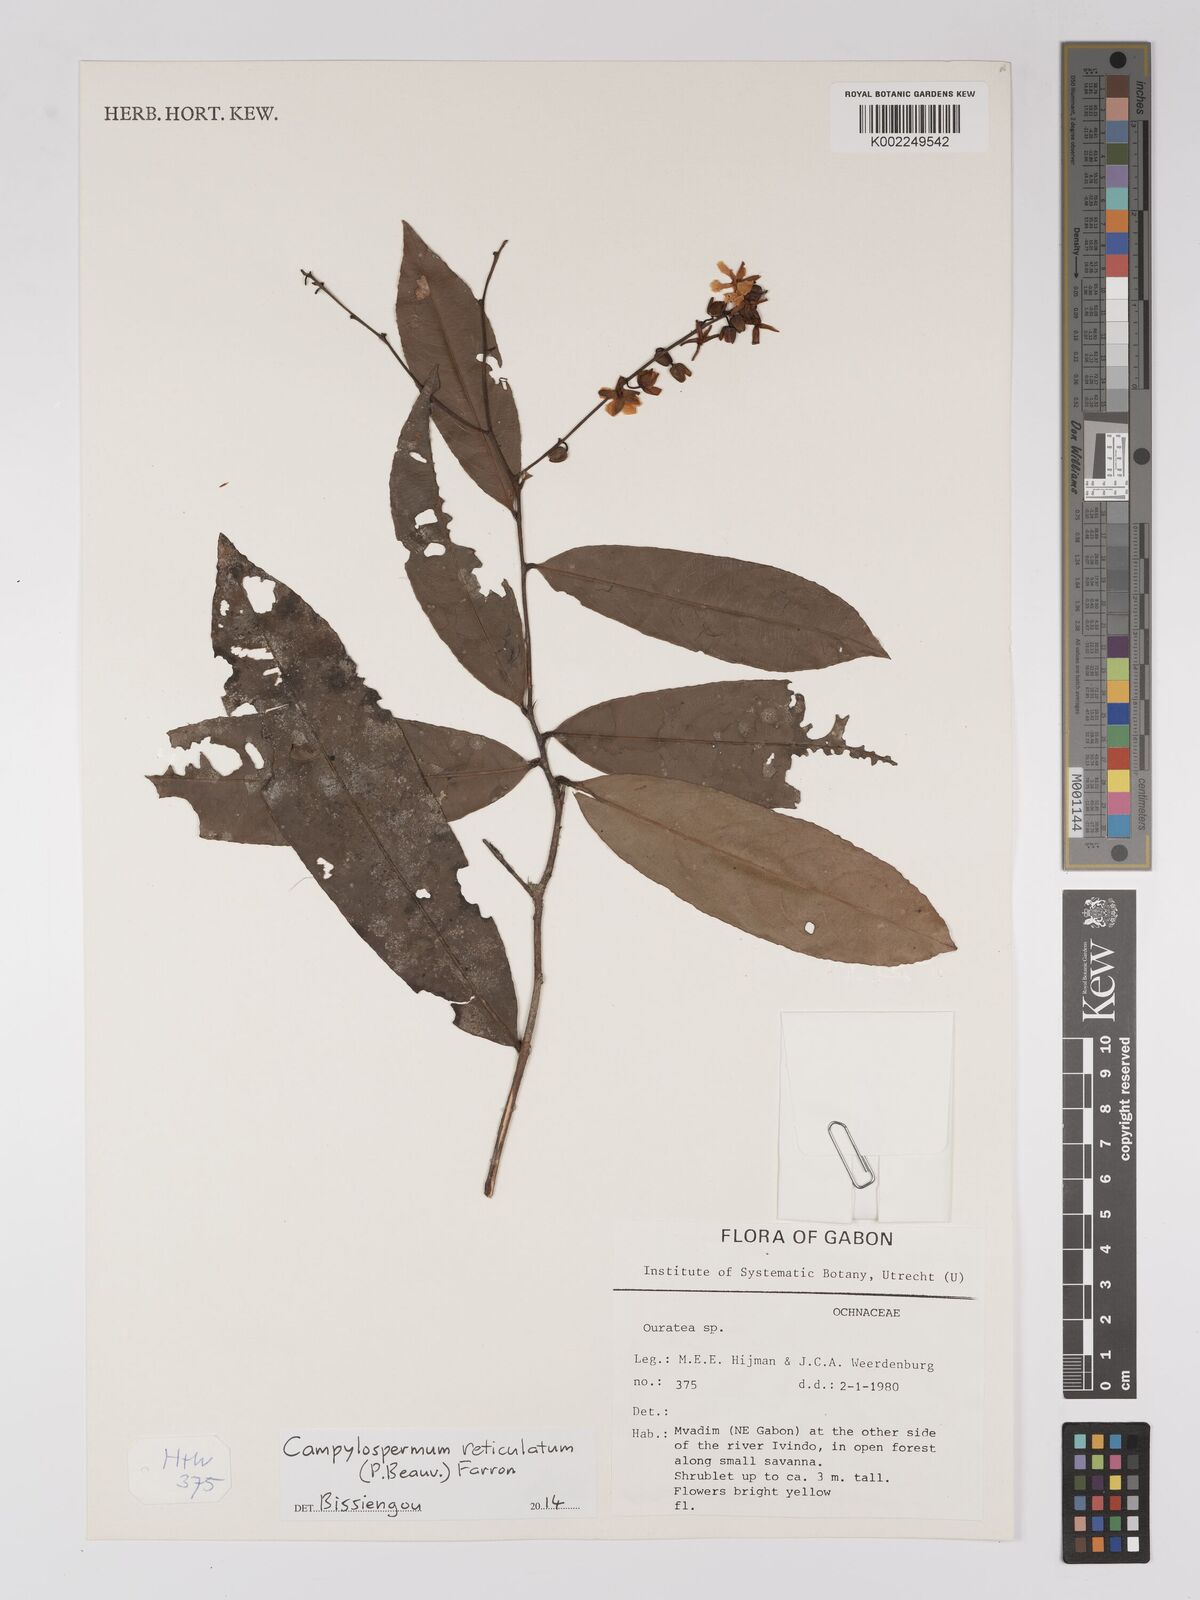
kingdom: Plantae
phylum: Tracheophyta
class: Magnoliopsida
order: Malpighiales
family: Ochnaceae
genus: Campylospermum
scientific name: Campylospermum reticulatum
